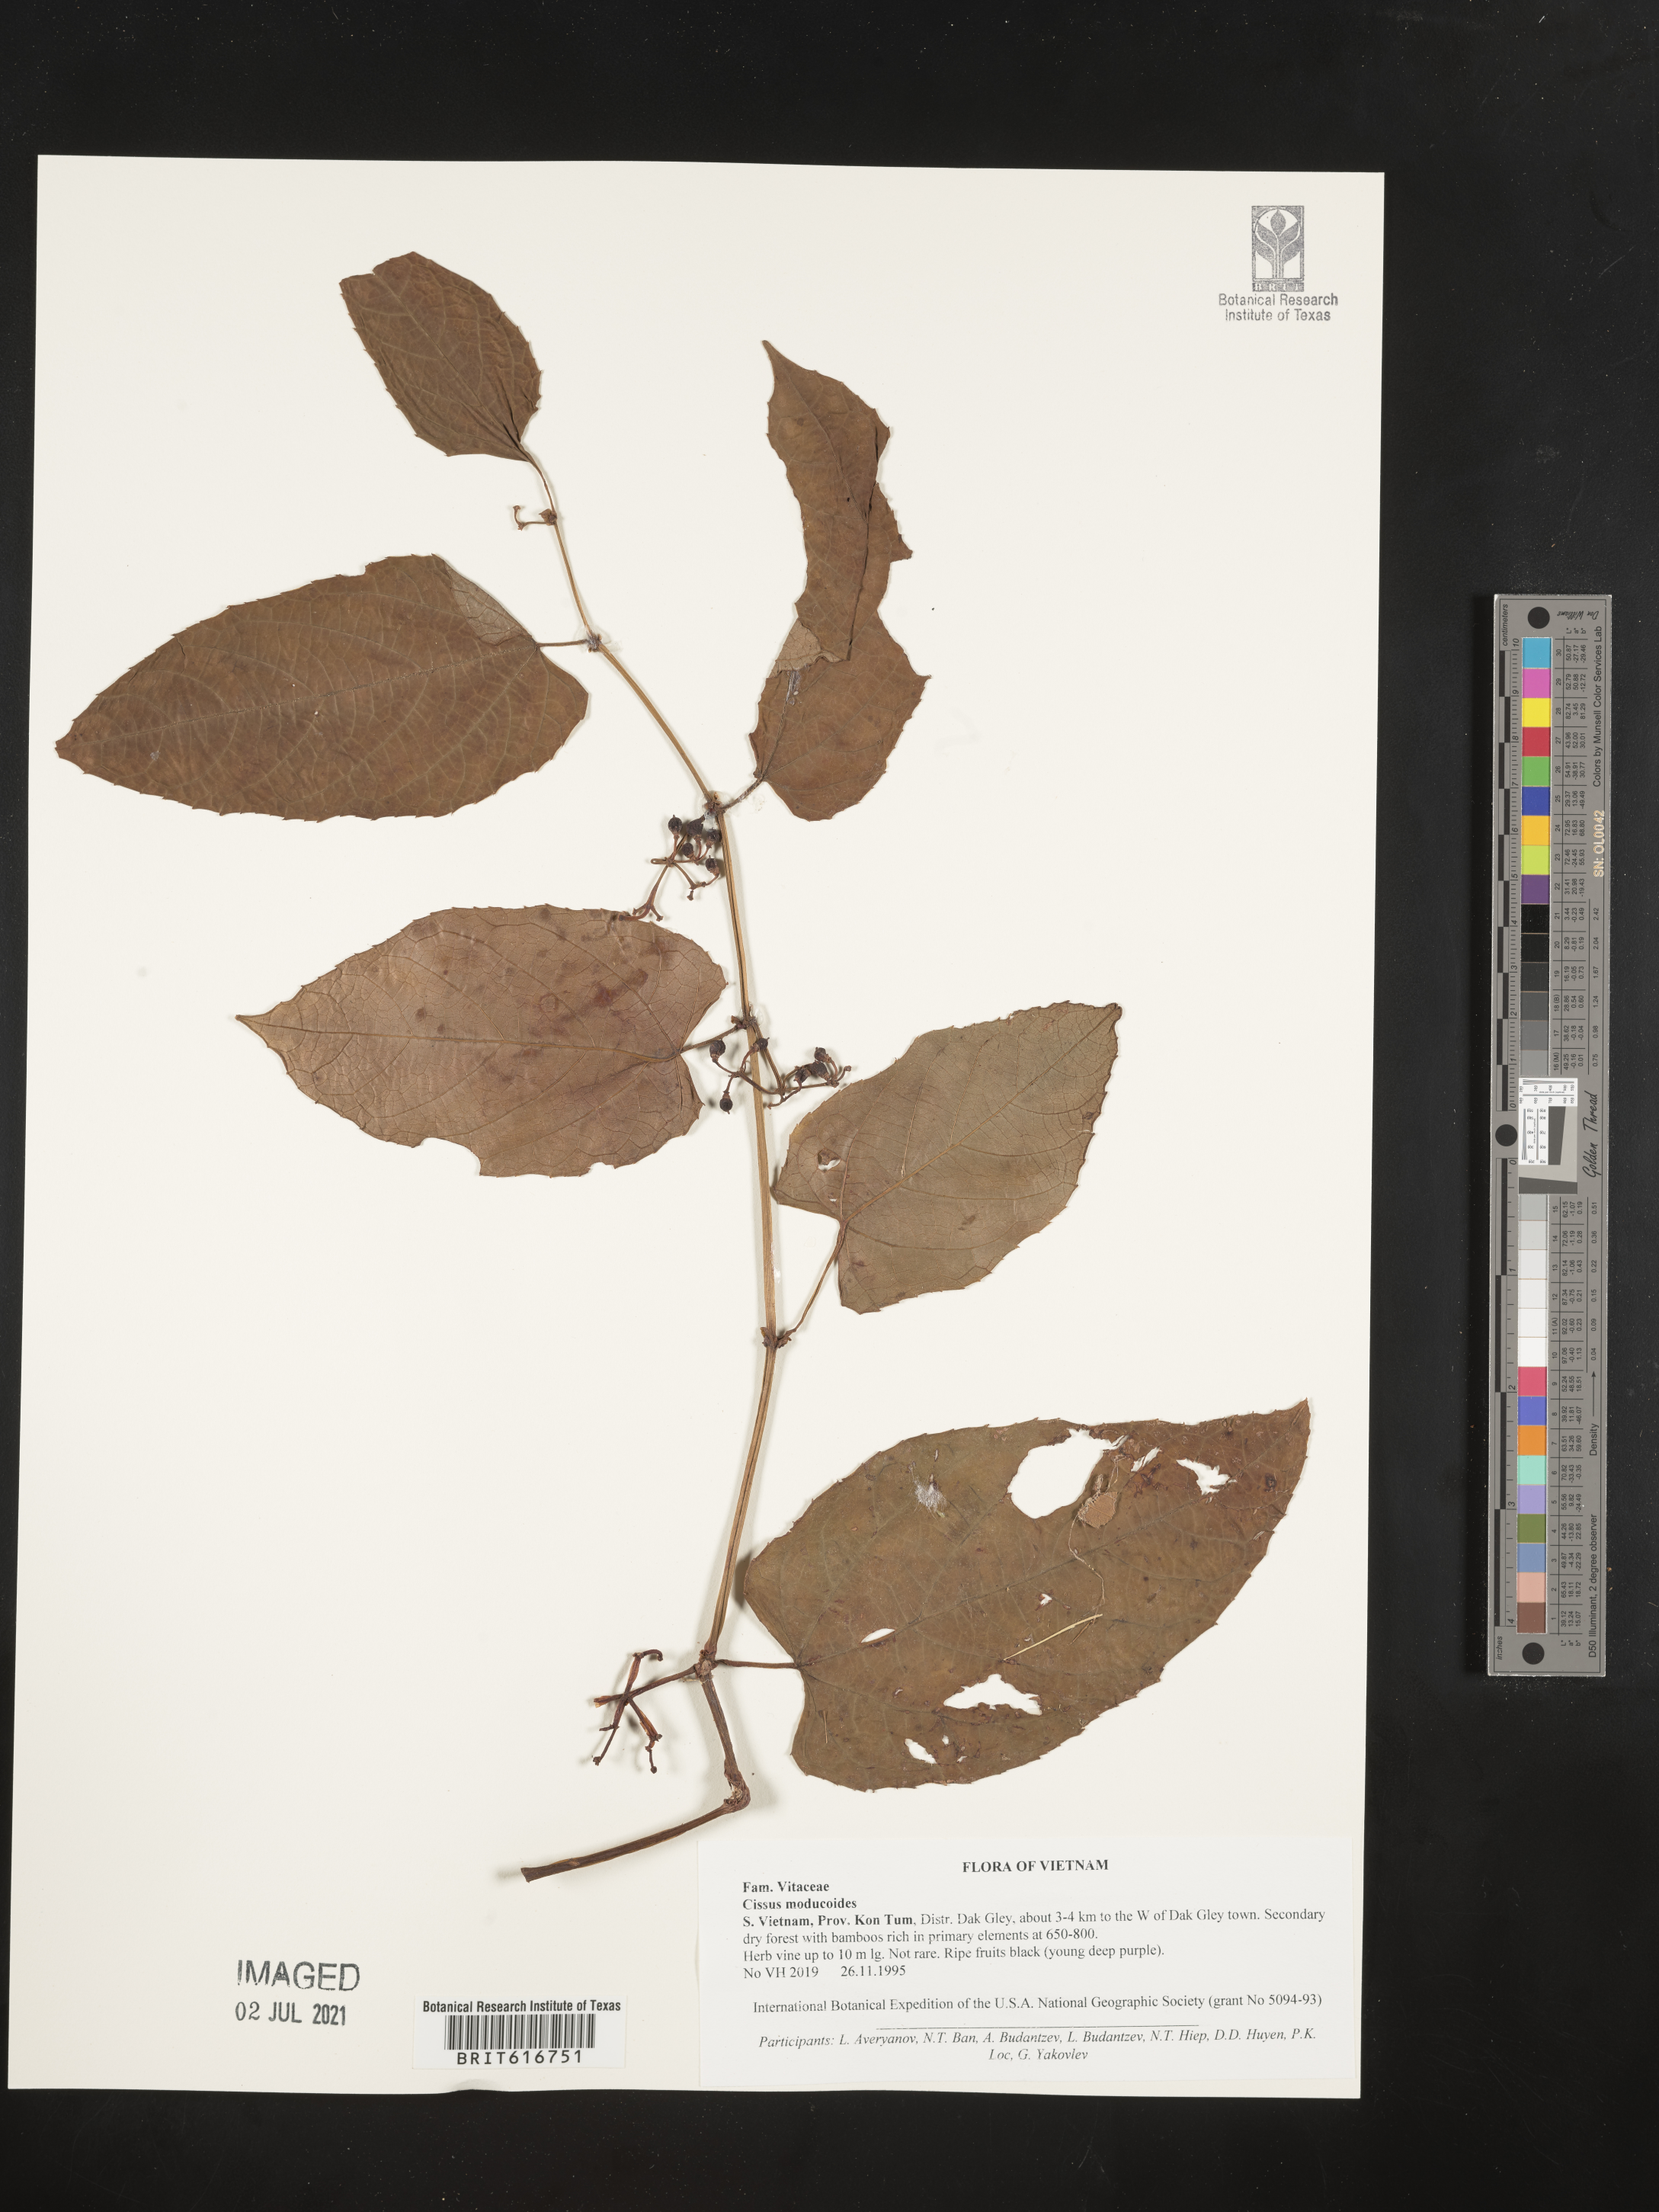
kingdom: Plantae
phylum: Tracheophyta
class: Magnoliopsida
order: Vitales
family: Vitaceae
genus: Cissus
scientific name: Cissus modeccoides
